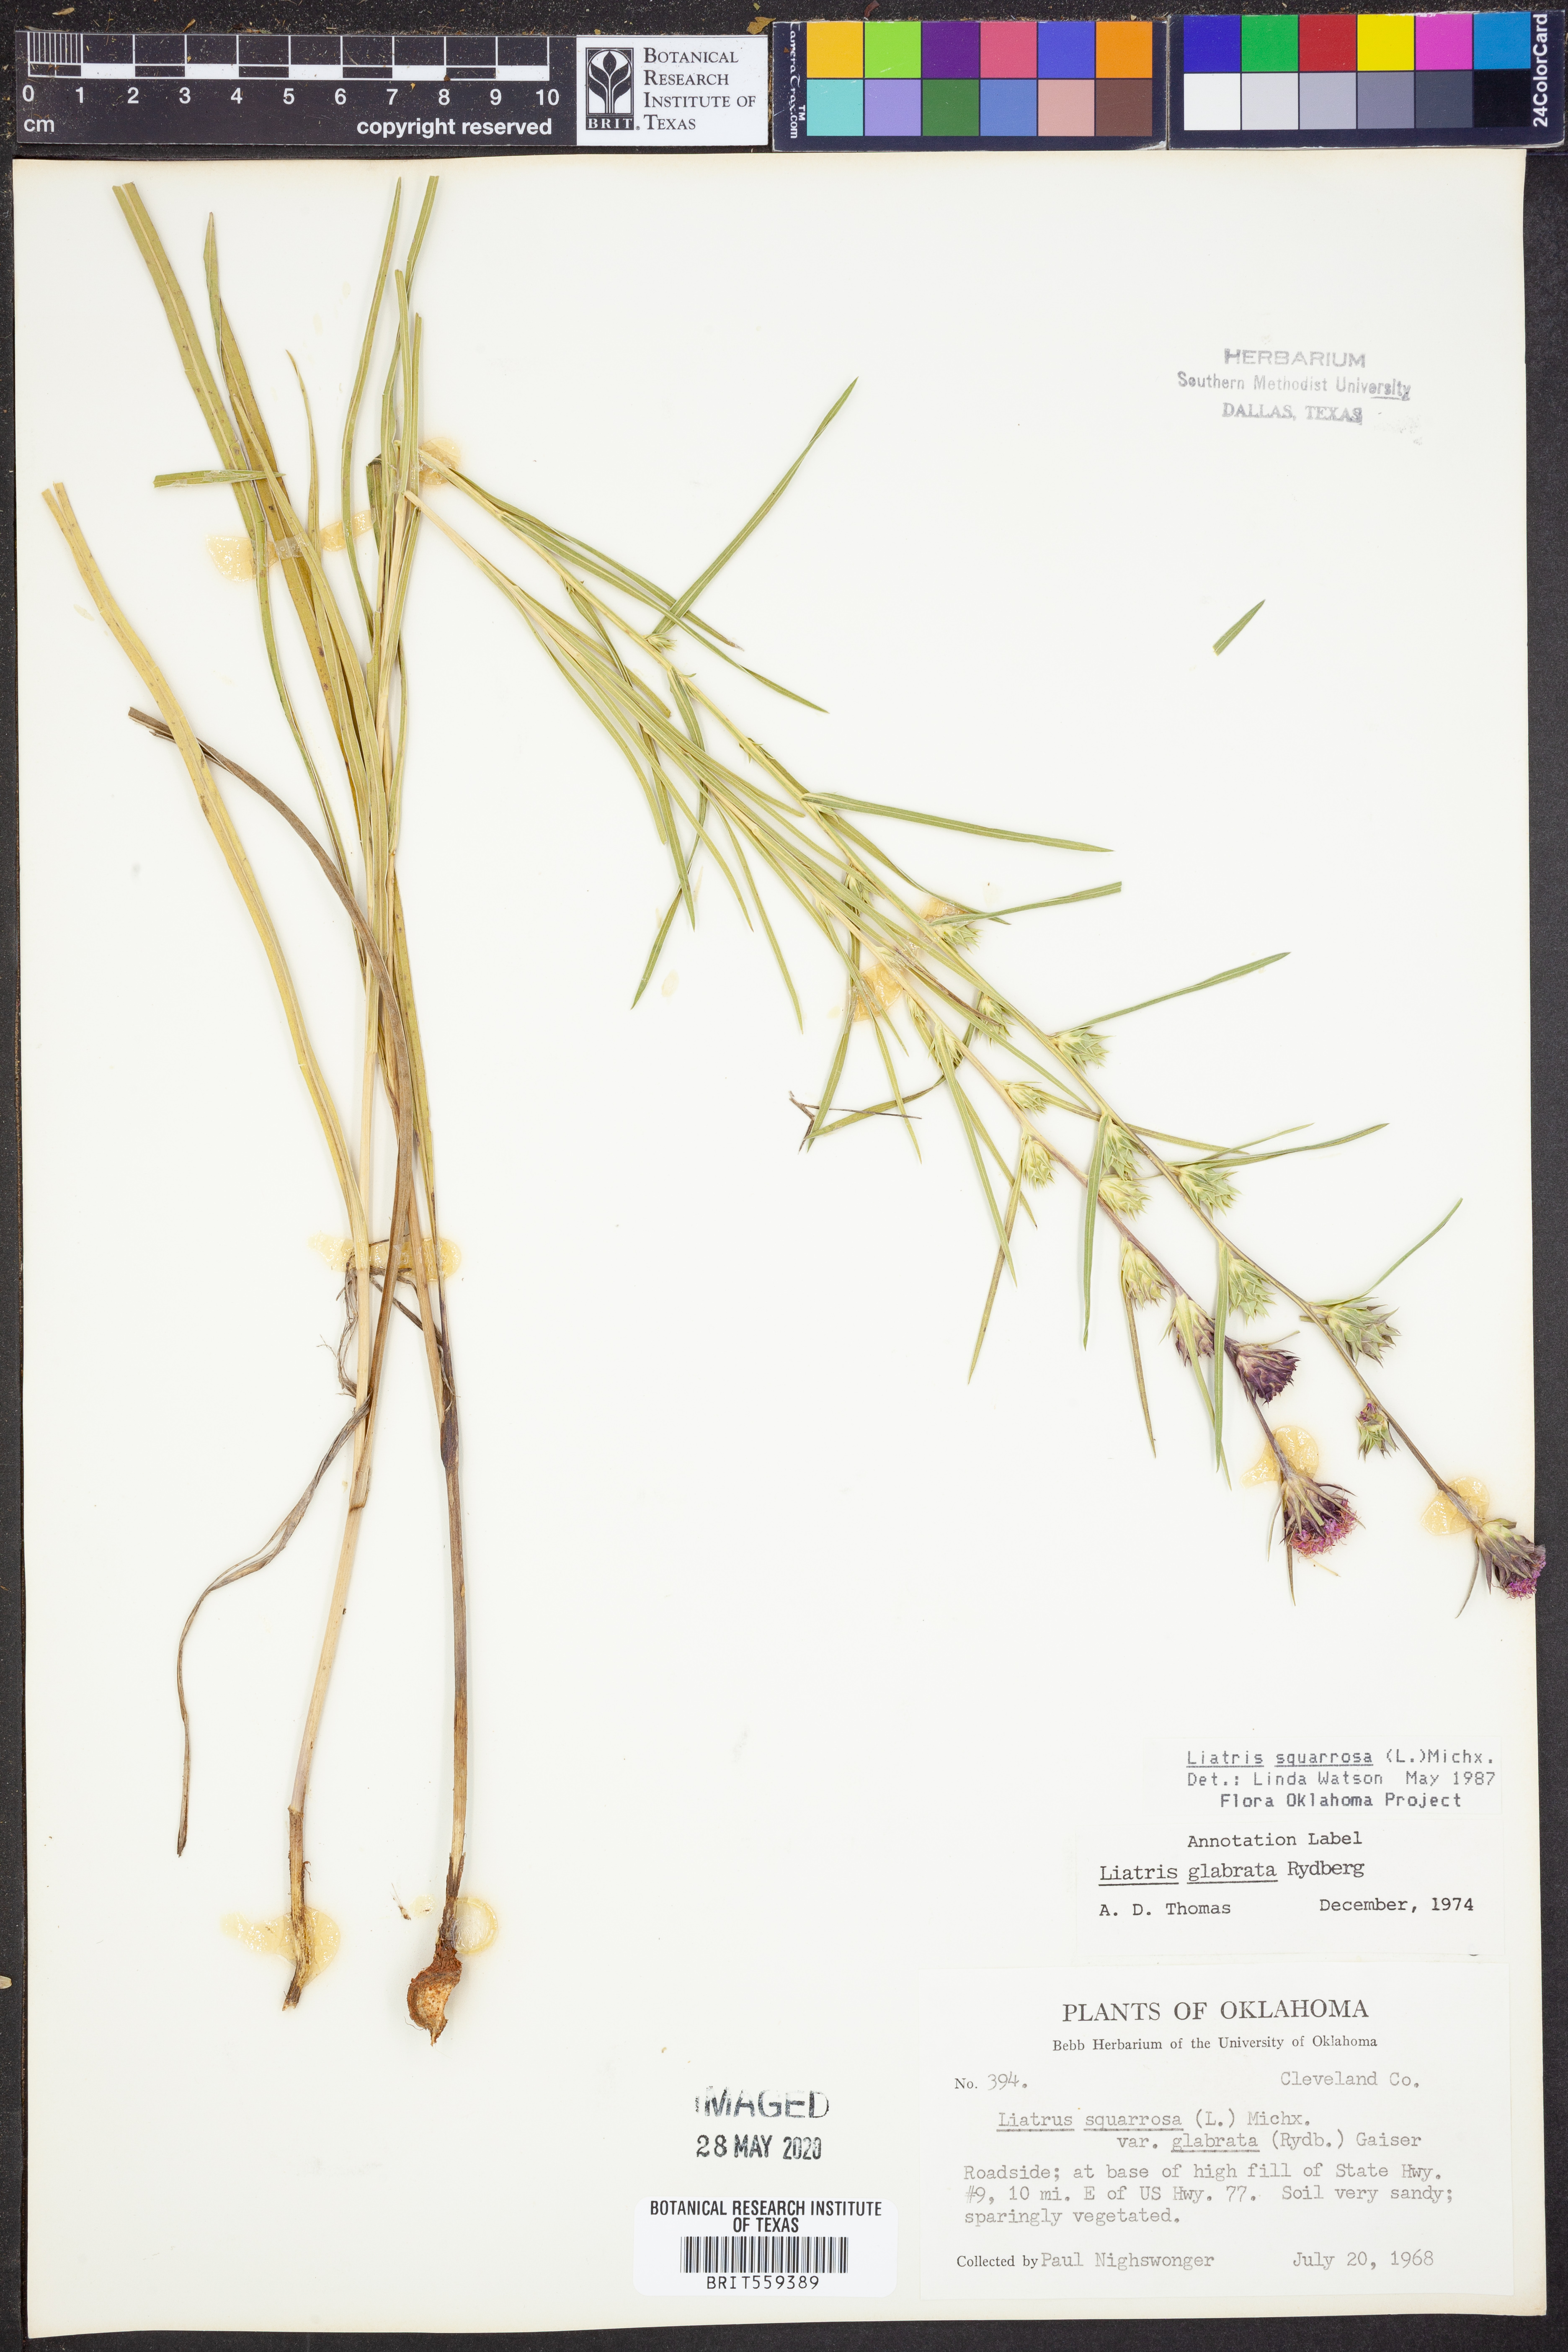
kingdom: Plantae
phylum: Tracheophyta
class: Magnoliopsida
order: Asterales
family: Asteraceae
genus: Liatris
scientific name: Liatris squarrosa
